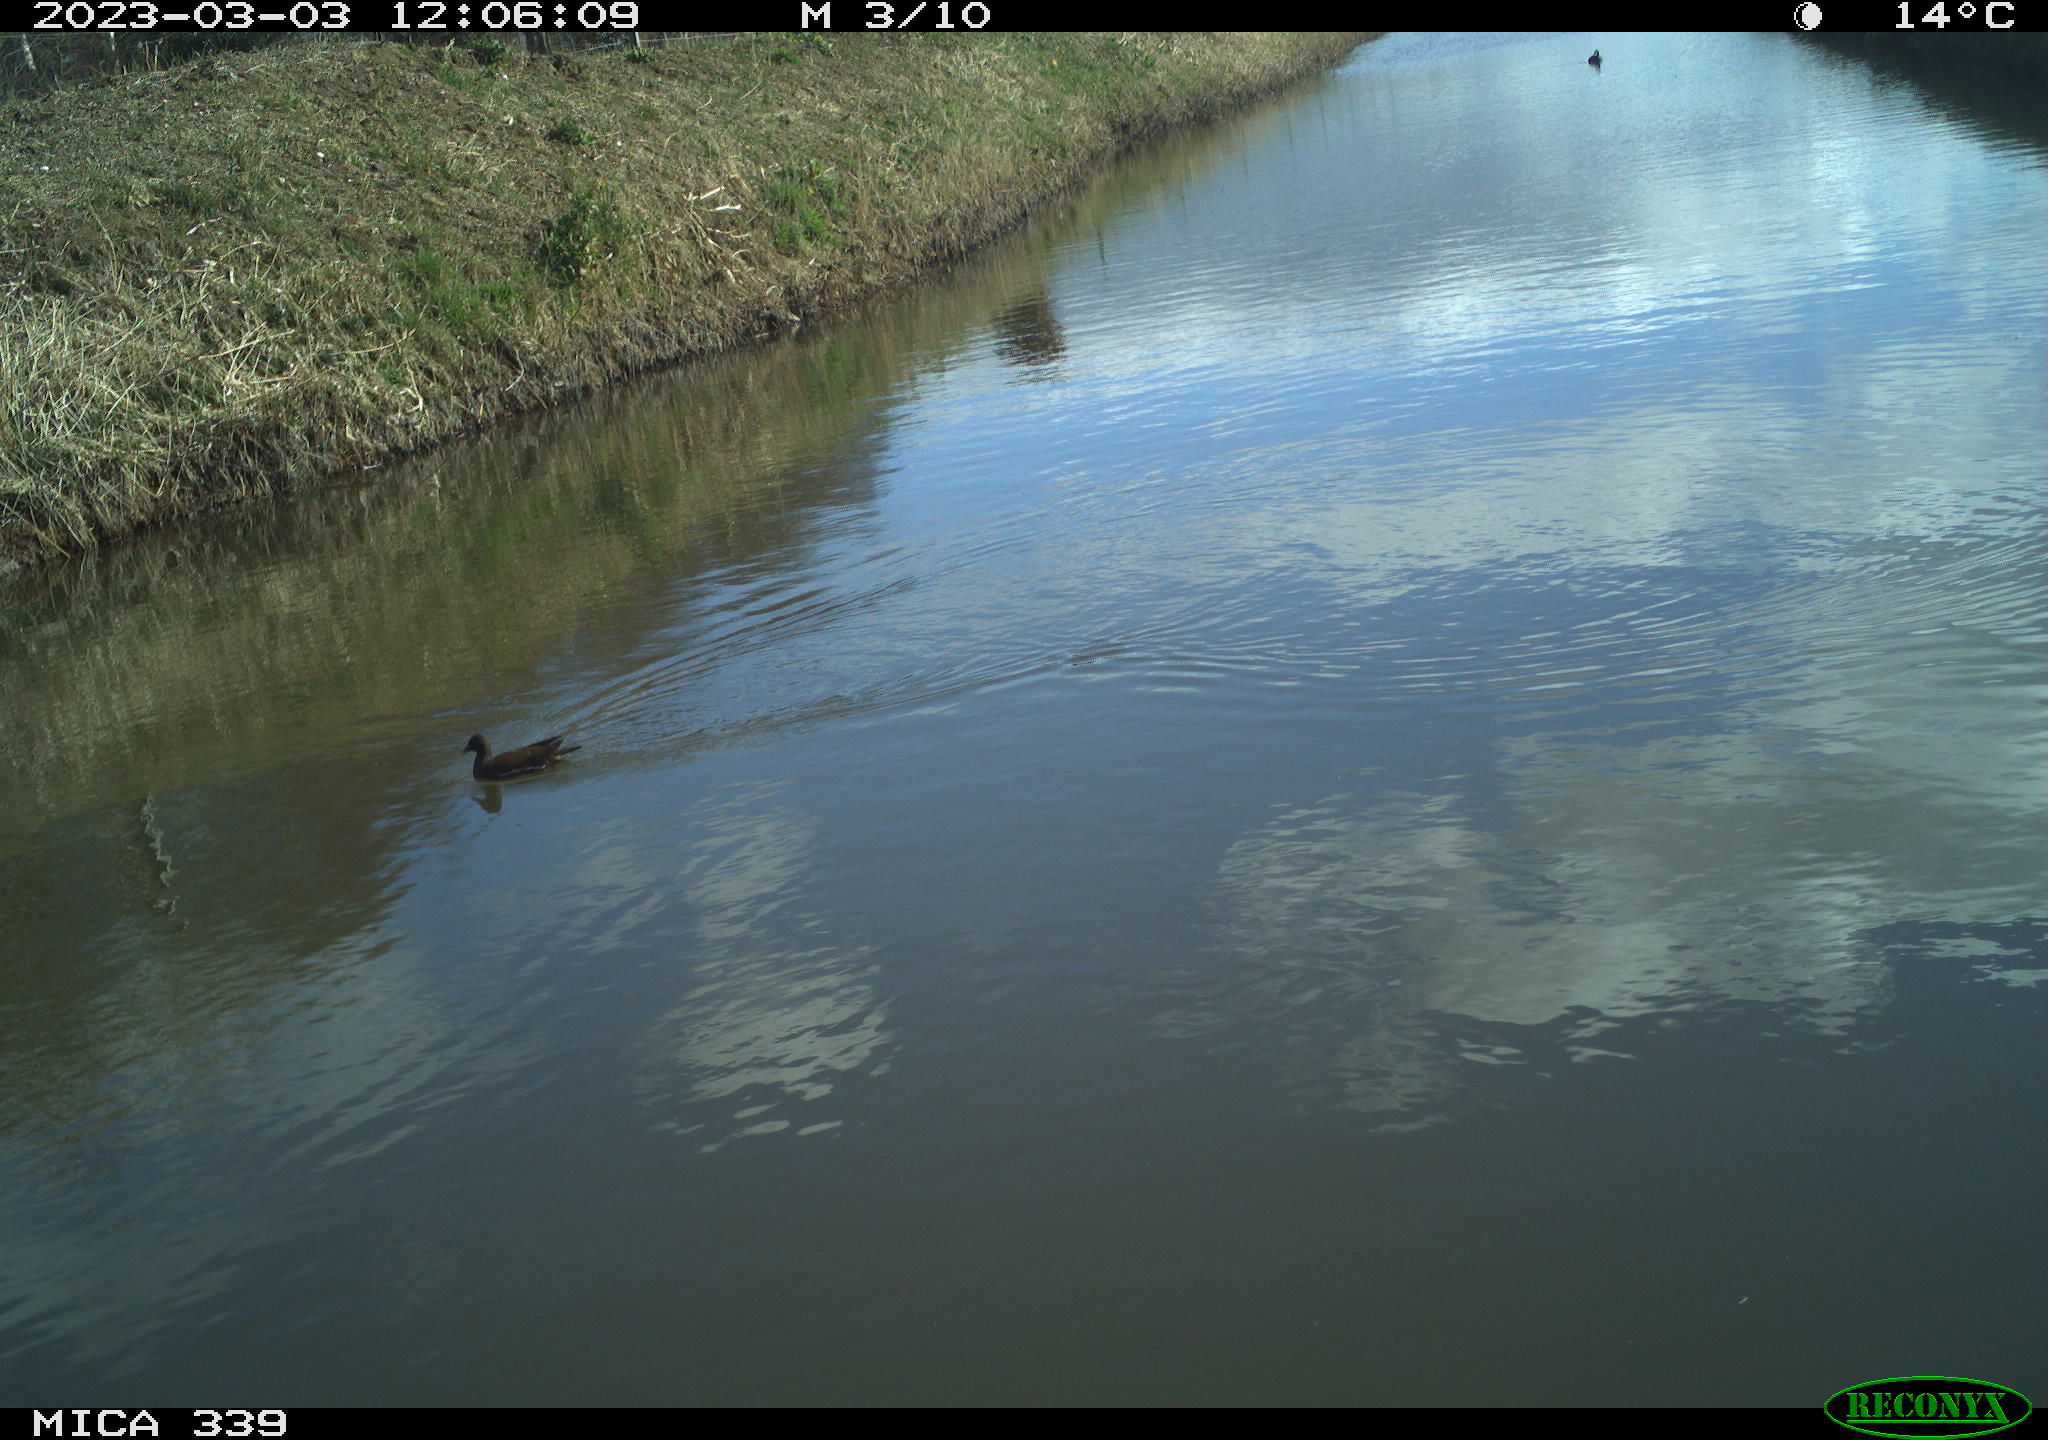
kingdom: Animalia
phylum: Chordata
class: Aves
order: Gruiformes
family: Rallidae
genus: Gallinula
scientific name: Gallinula chloropus
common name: Common moorhen
